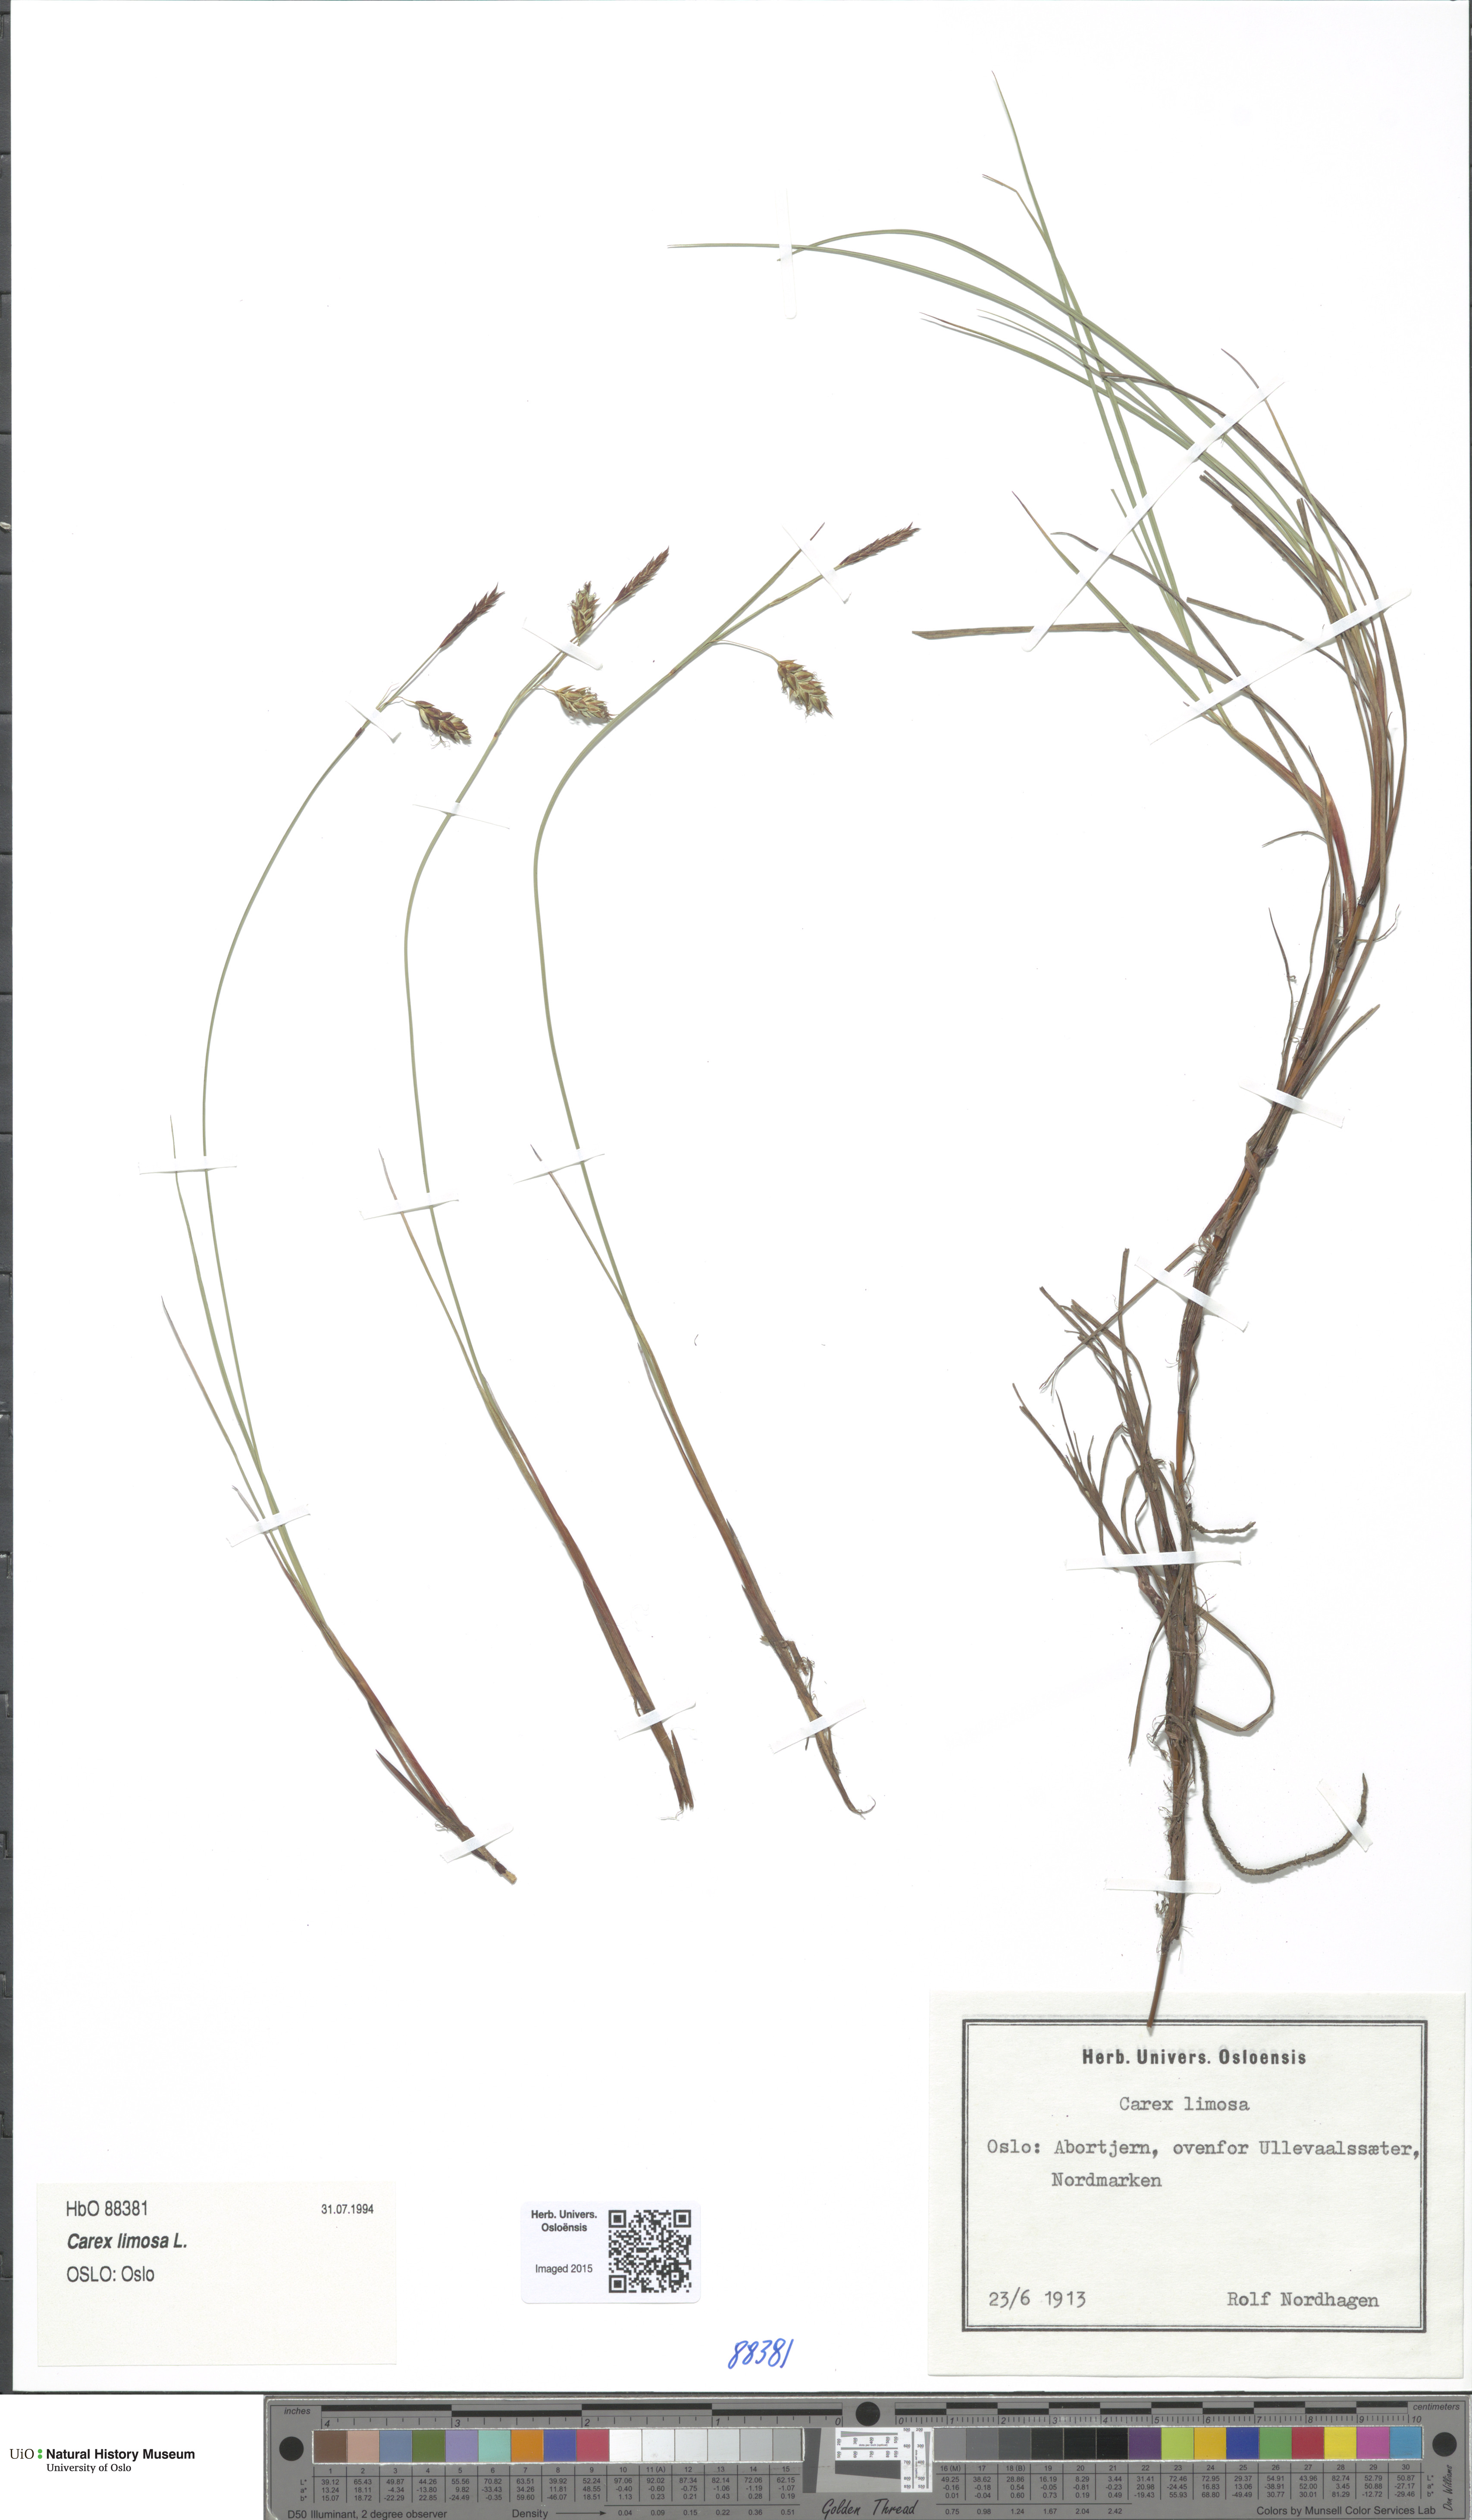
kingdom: Plantae
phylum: Tracheophyta
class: Liliopsida
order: Poales
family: Cyperaceae
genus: Carex
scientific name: Carex limosa
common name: Bog sedge
